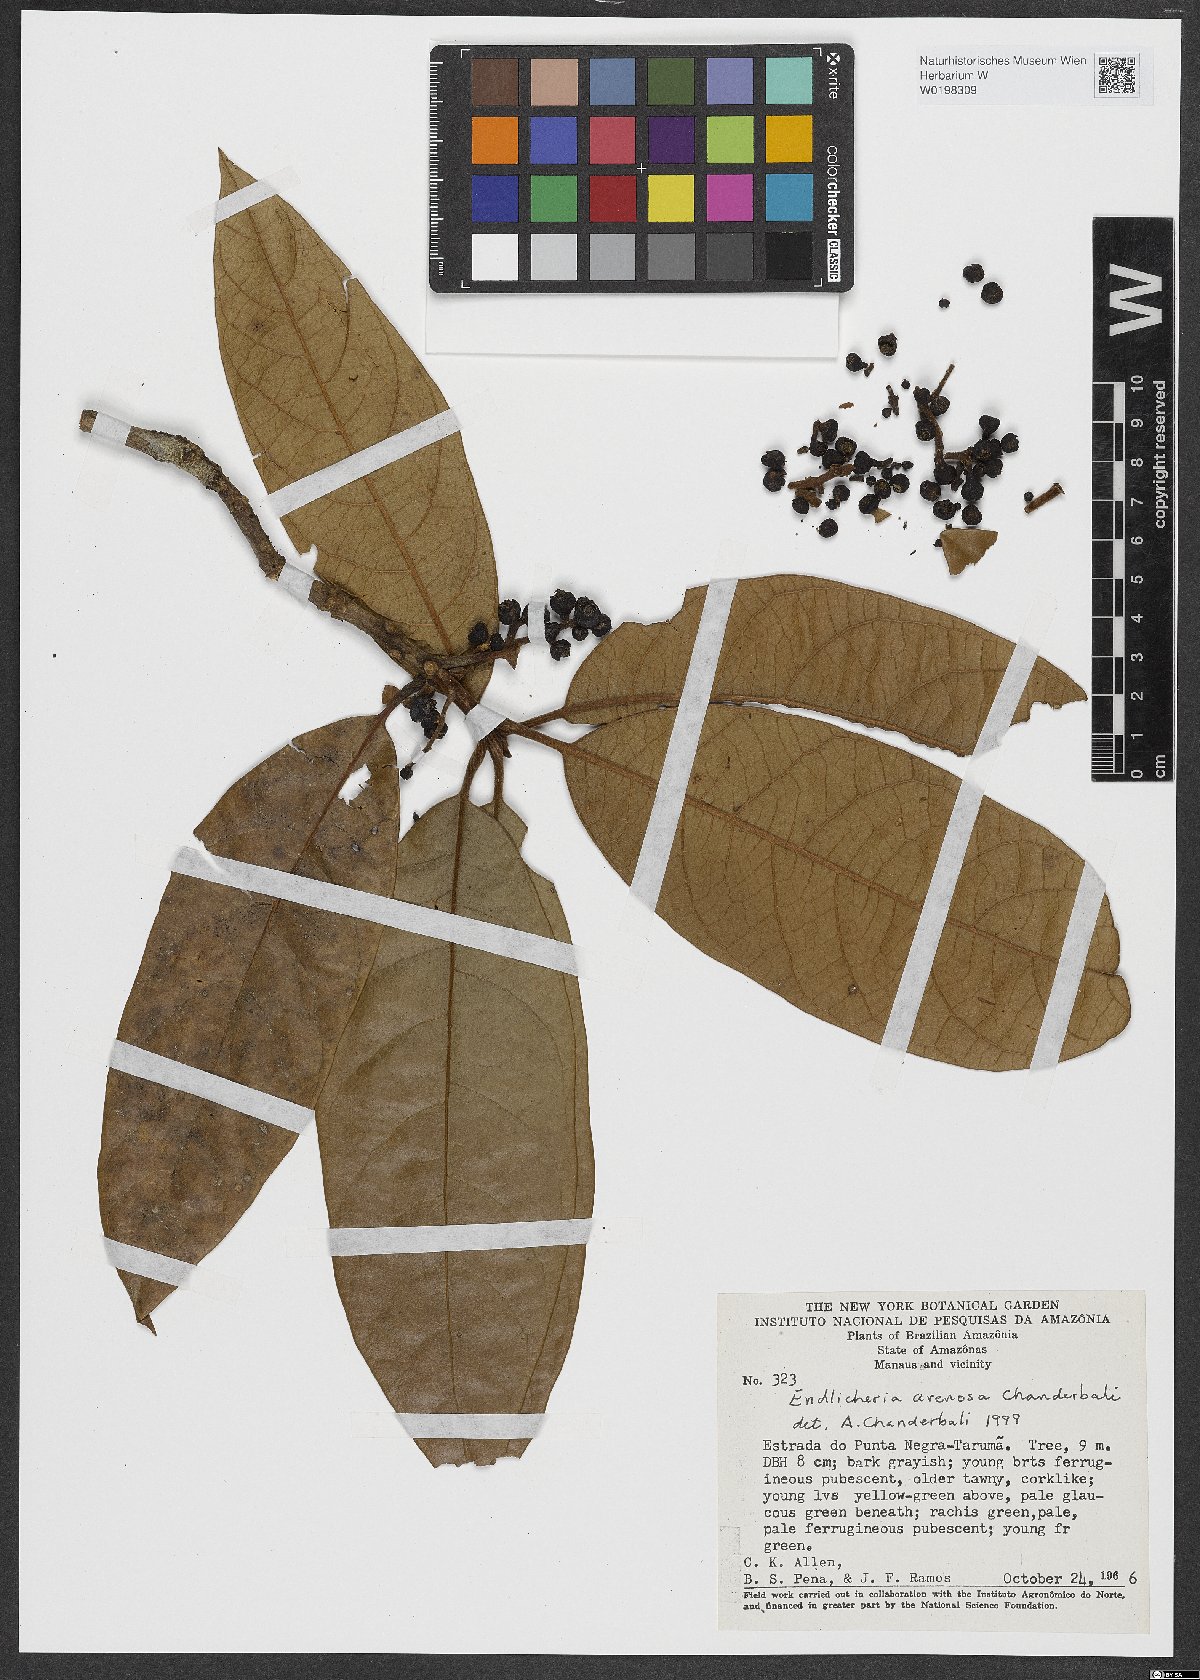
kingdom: Plantae
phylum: Tracheophyta
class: Magnoliopsida
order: Laurales
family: Lauraceae
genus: Endlicheria
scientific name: Endlicheria arenosa
